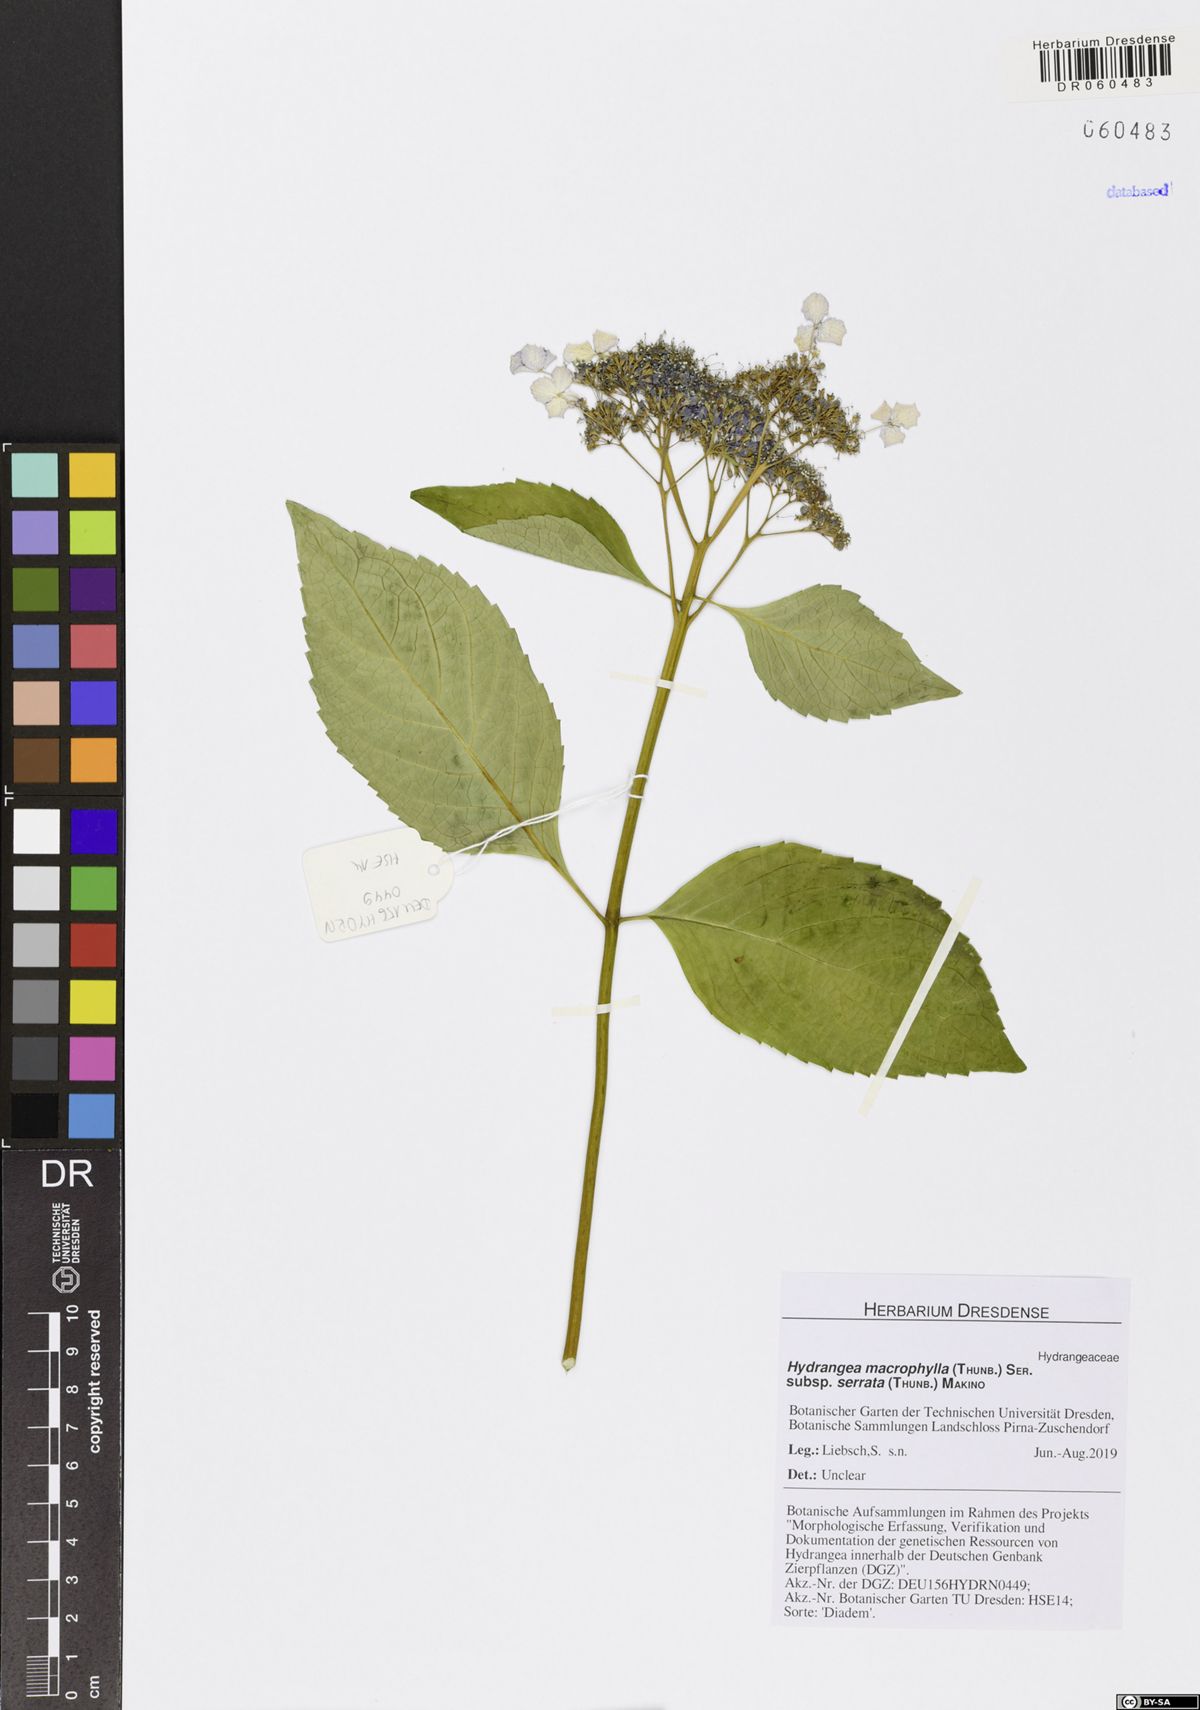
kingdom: Plantae
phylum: Tracheophyta
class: Magnoliopsida
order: Cornales
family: Hydrangeaceae
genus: Hydrangea
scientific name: Hydrangea serrata
